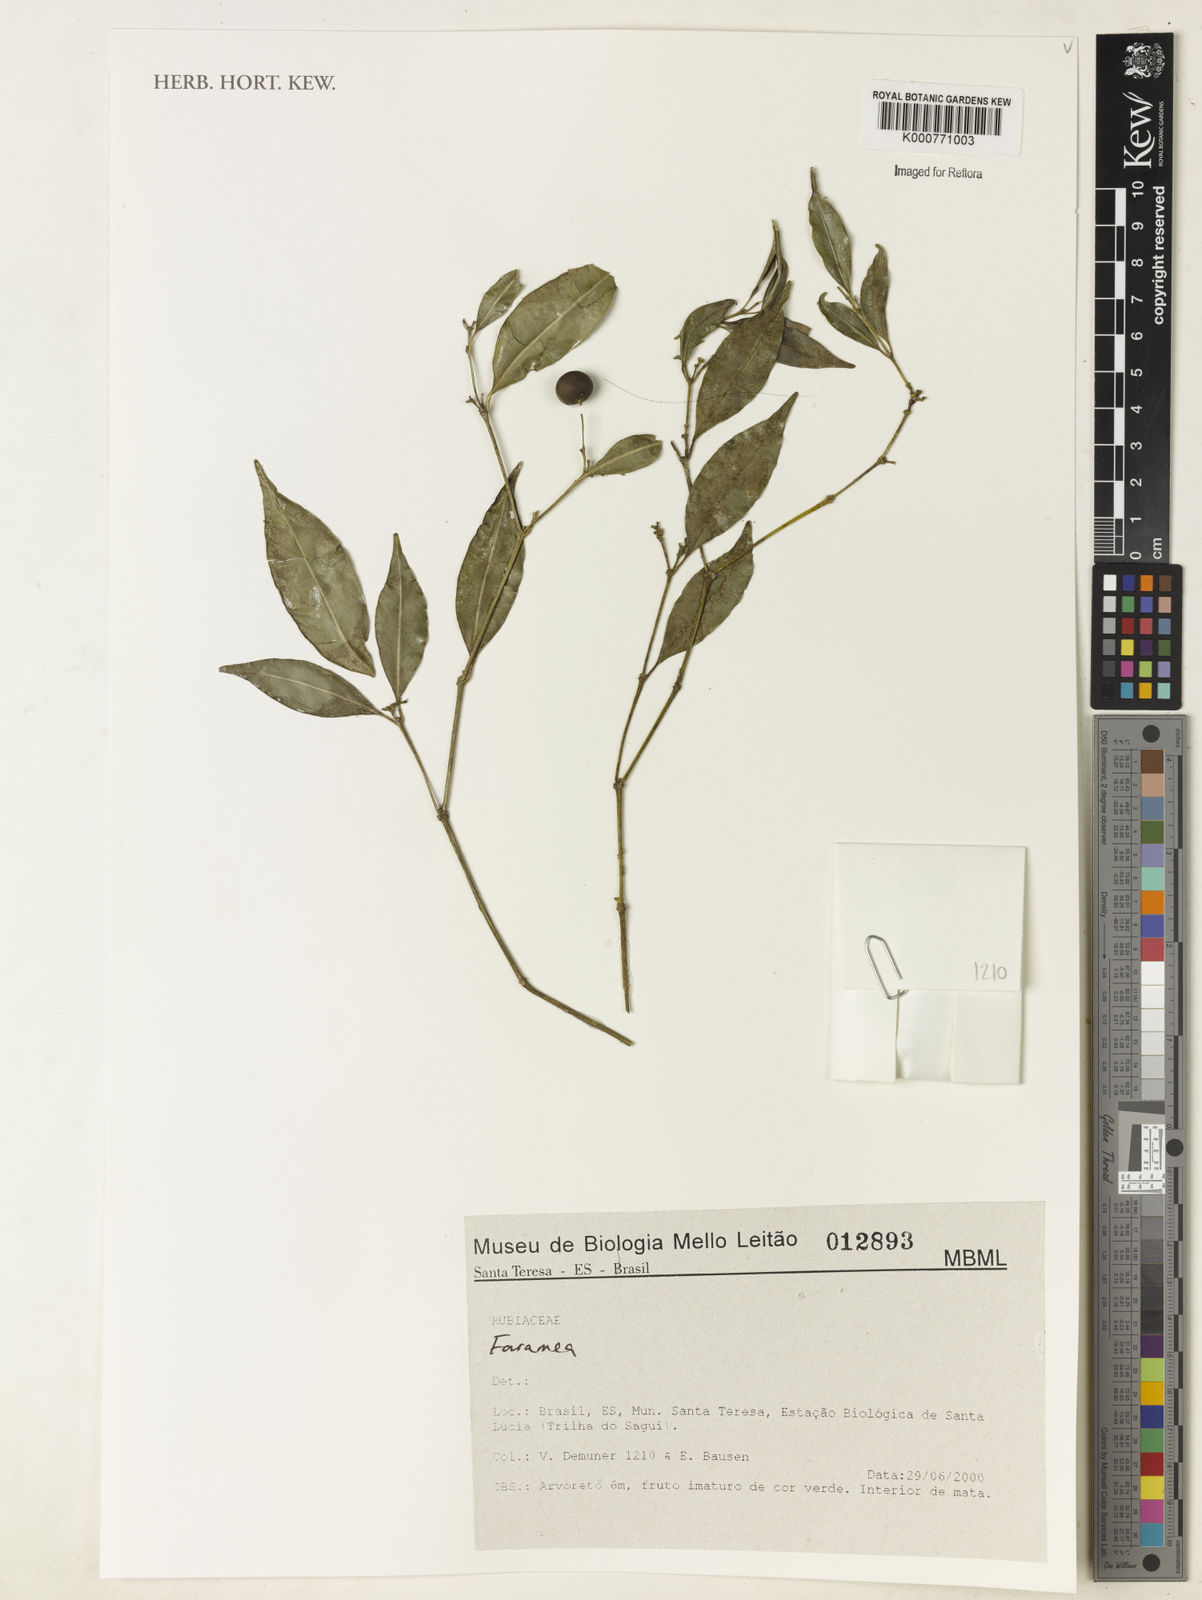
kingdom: Plantae
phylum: Tracheophyta
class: Magnoliopsida
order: Gentianales
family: Rubiaceae
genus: Faramea
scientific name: Faramea
